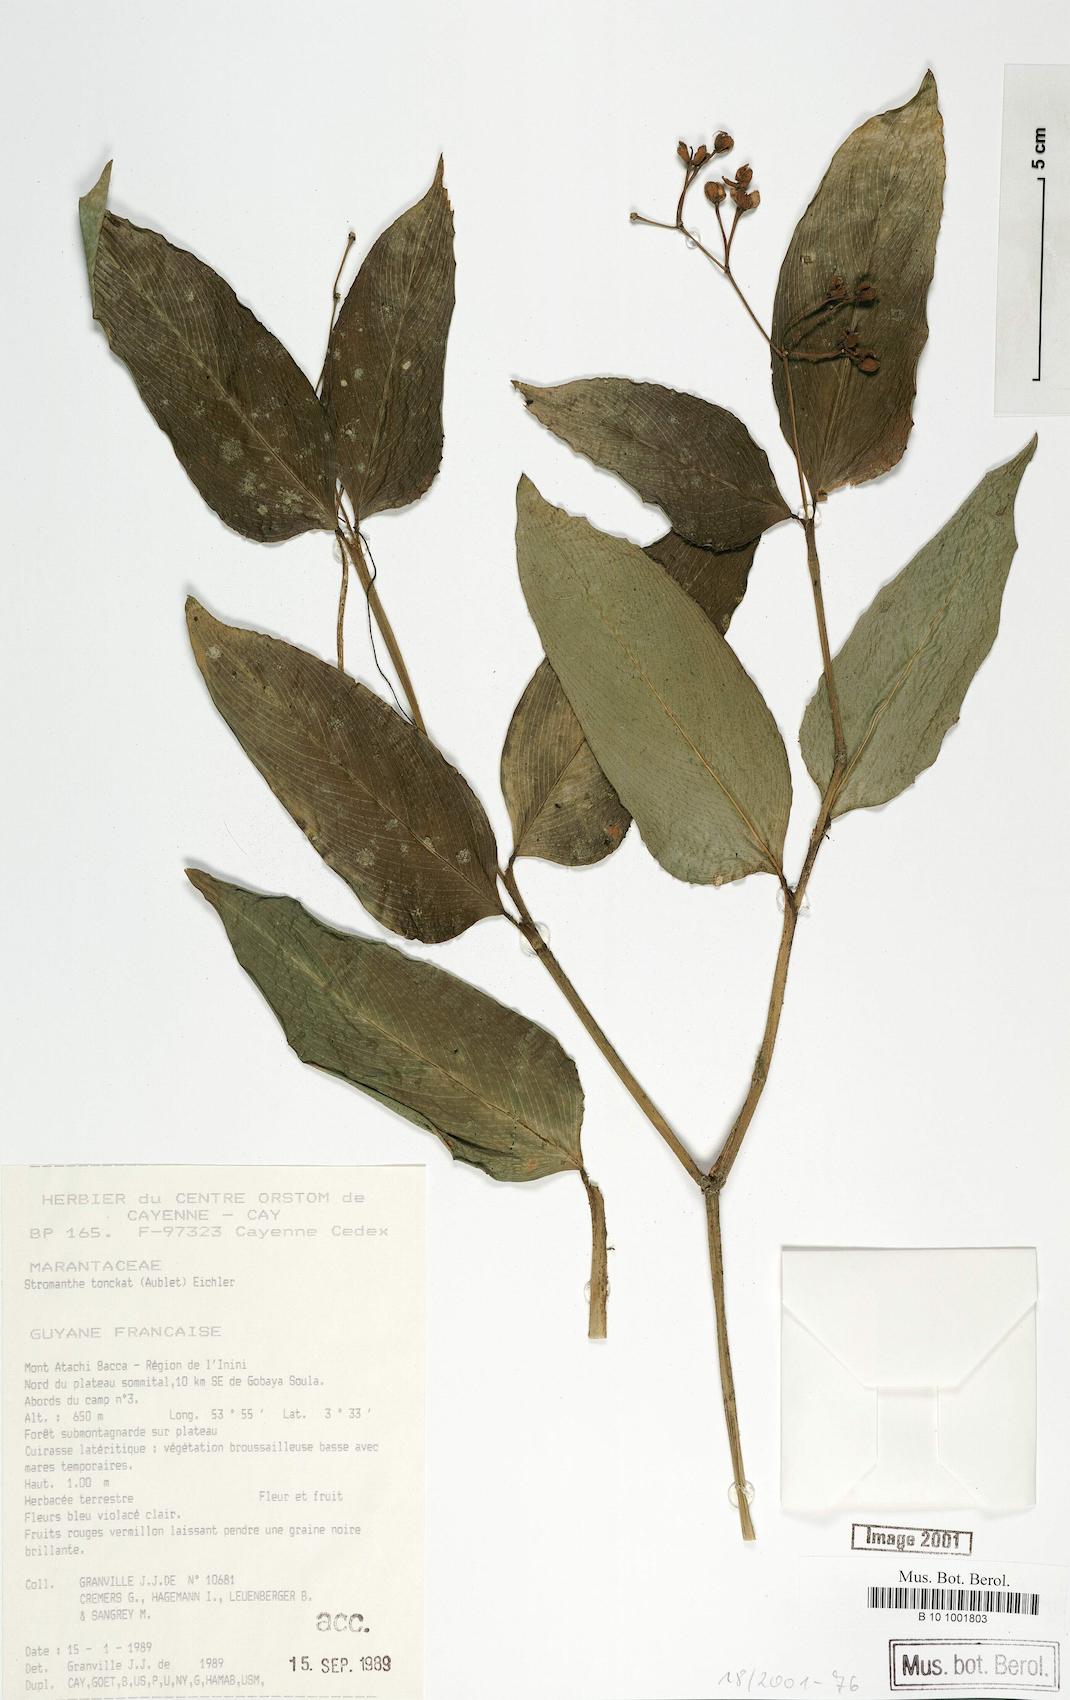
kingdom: Plantae
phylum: Tracheophyta
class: Liliopsida
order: Zingiberales
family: Marantaceae
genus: Stromanthe
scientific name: Stromanthe tonckat
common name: Stromanthe
